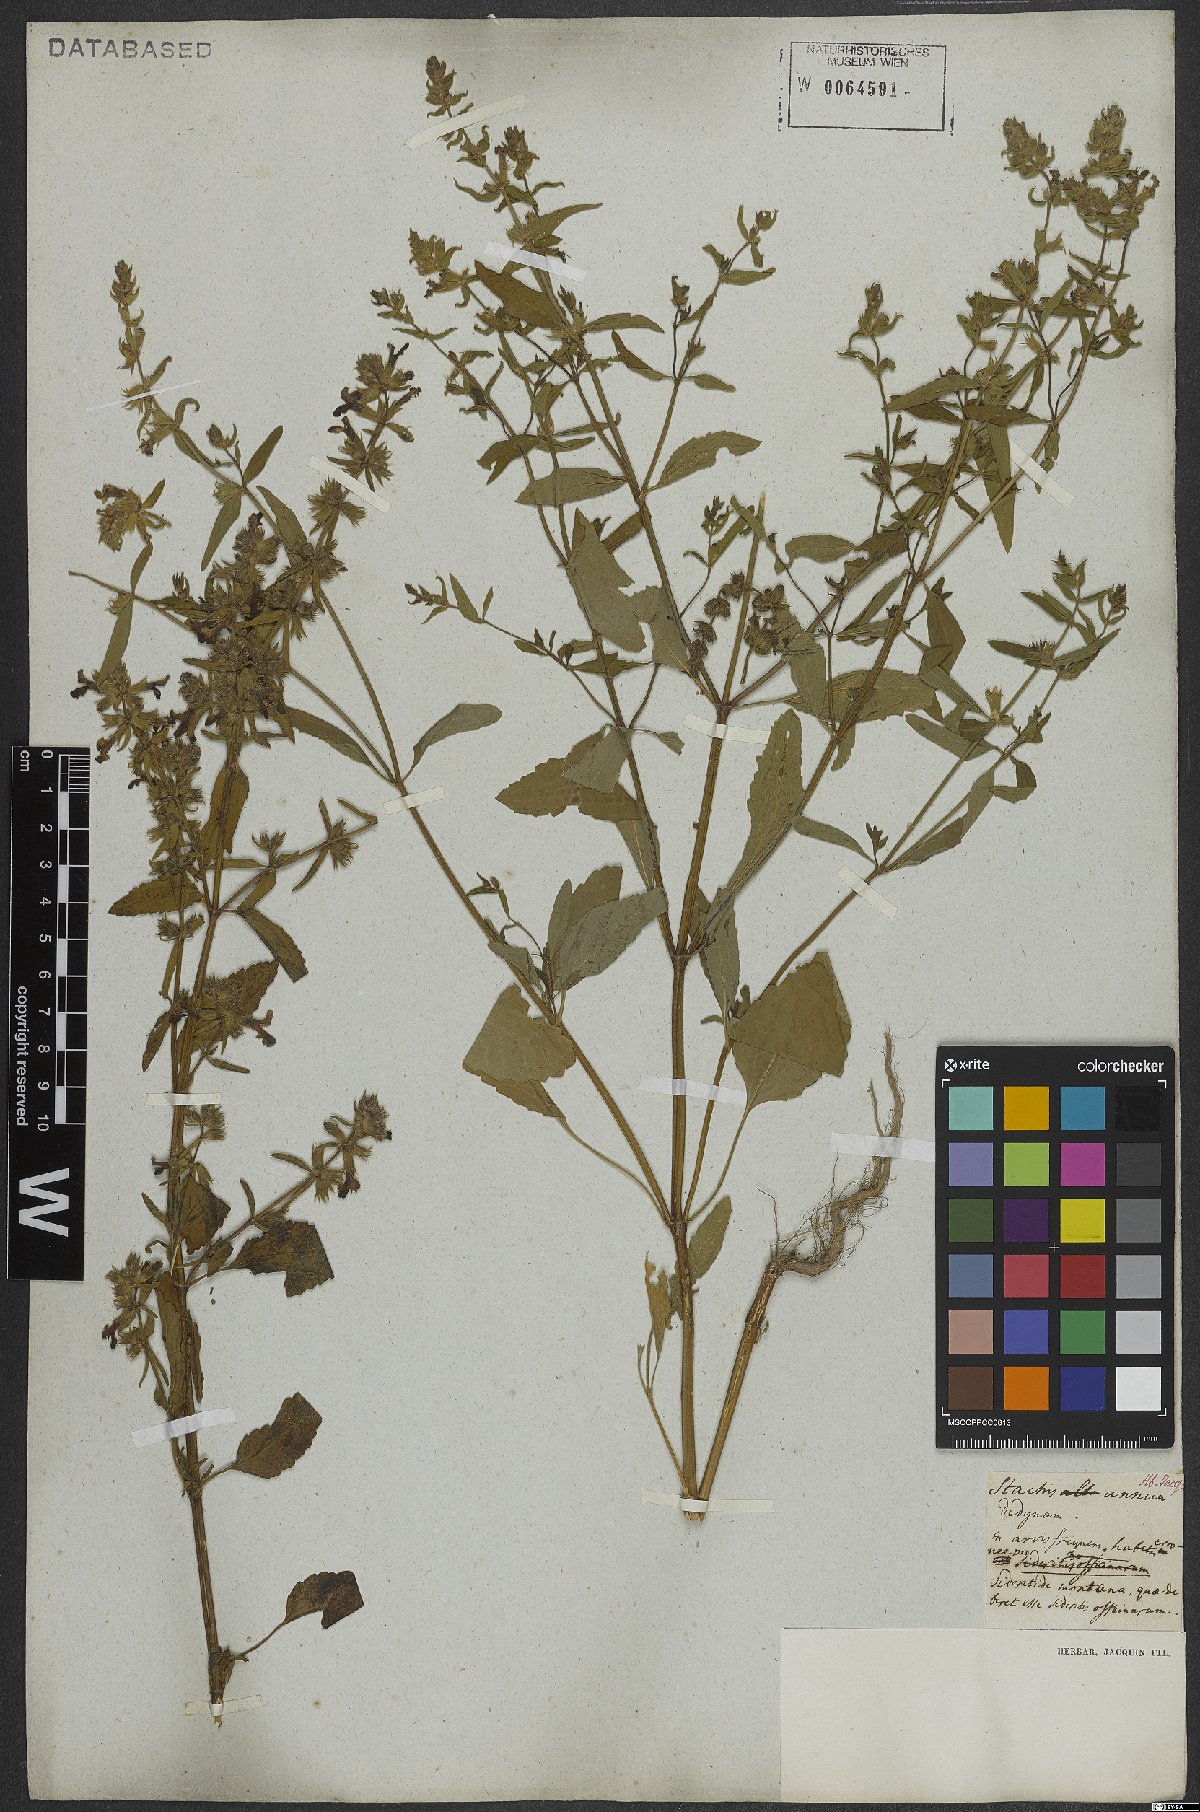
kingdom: Plantae
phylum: Tracheophyta
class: Magnoliopsida
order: Lamiales
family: Lamiaceae
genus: Stachys
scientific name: Stachys annua
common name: Annual yellow-woundwort
